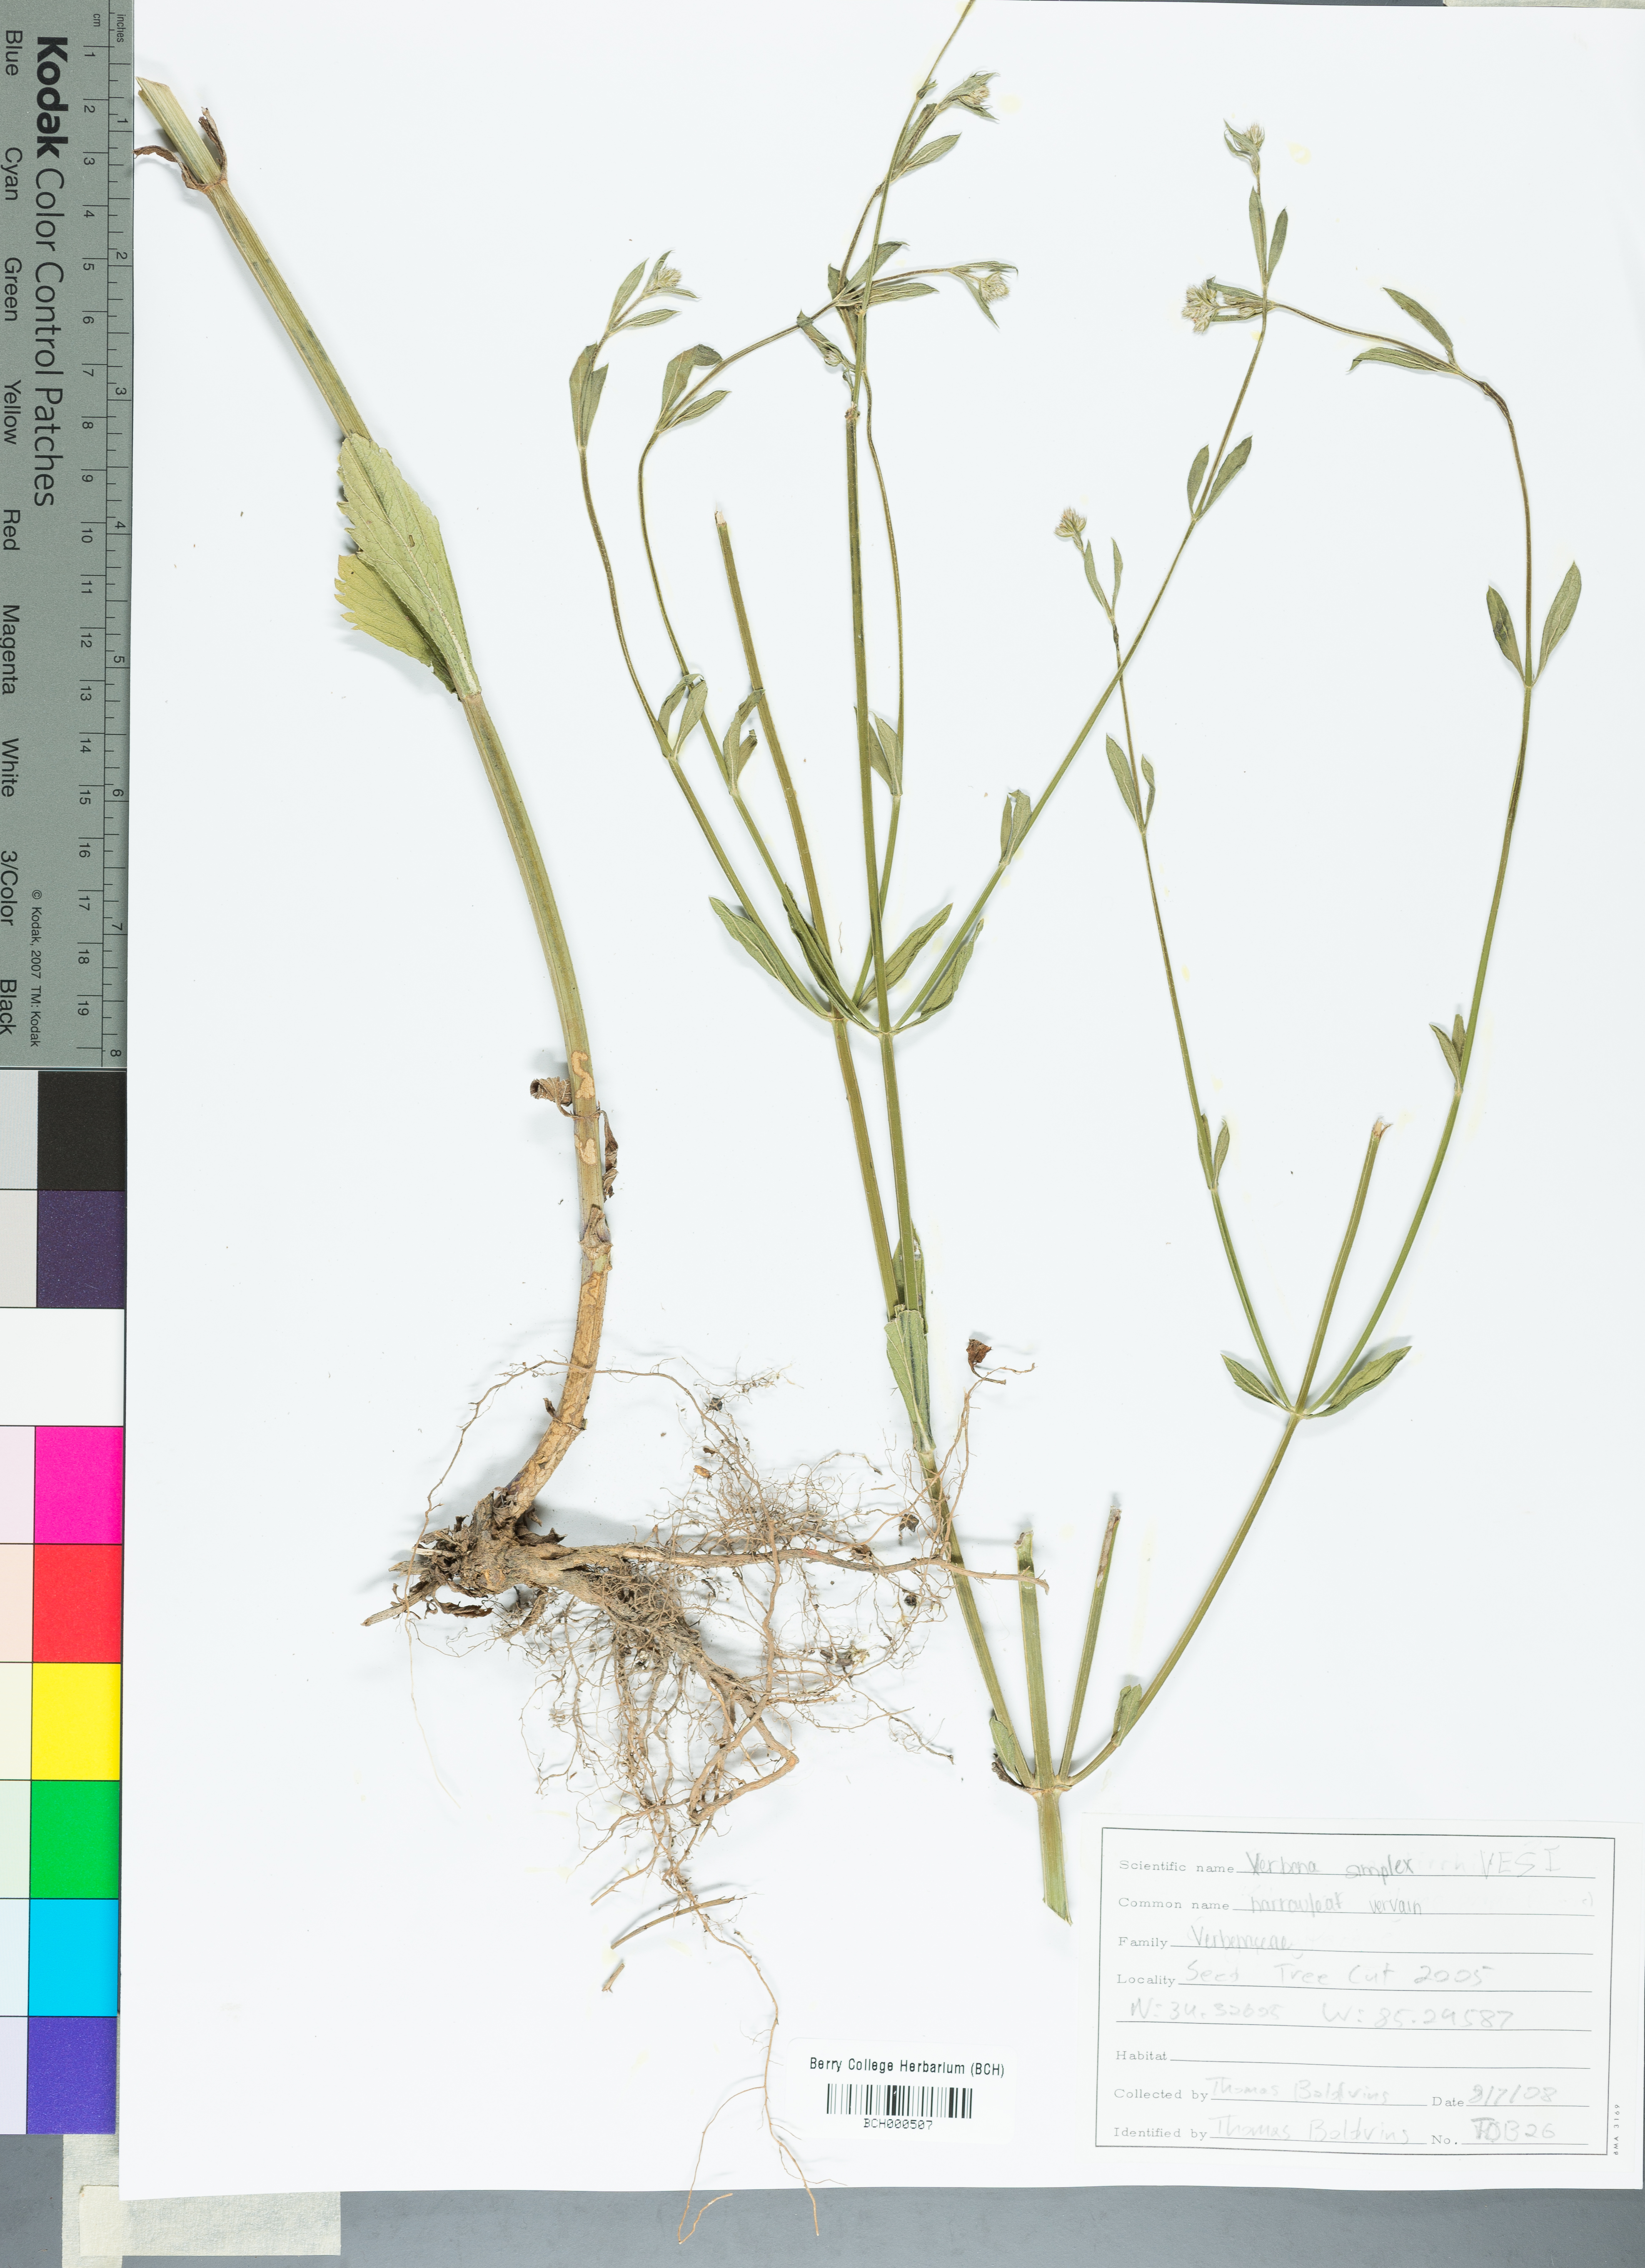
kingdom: Plantae
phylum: Tracheophyta
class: Magnoliopsida
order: Lamiales
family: Verbenaceae
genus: Verbena
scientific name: Verbena simplex
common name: Narrow-leaf vervain
